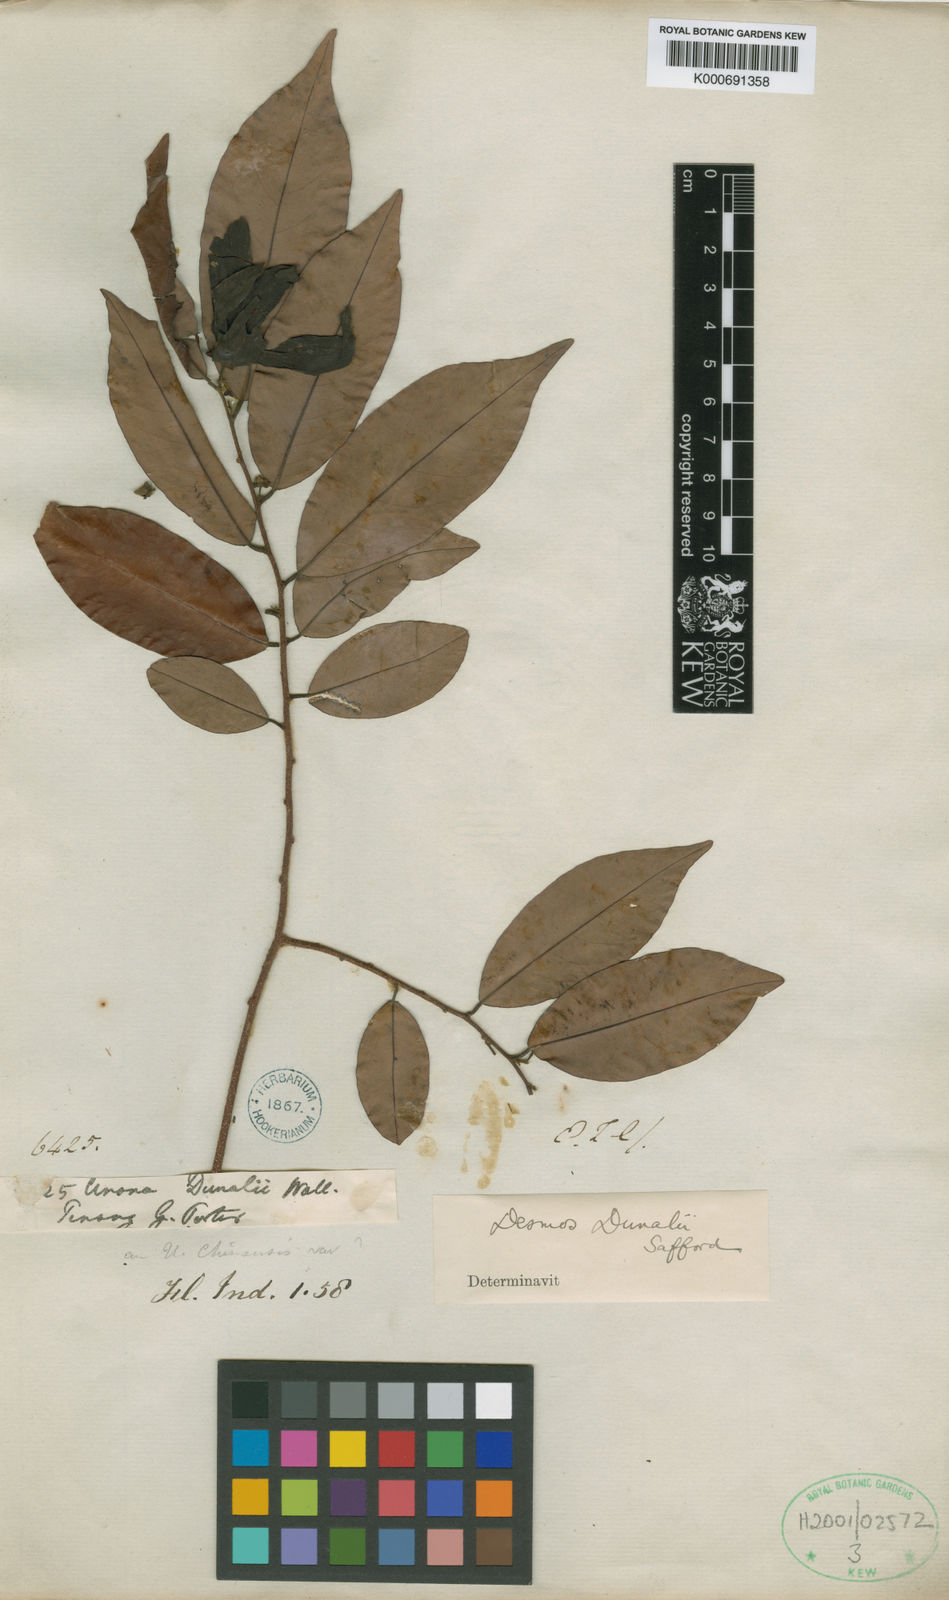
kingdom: Plantae
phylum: Tracheophyta
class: Magnoliopsida
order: Magnoliales
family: Annonaceae
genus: Desmos
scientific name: Desmos dunalii
